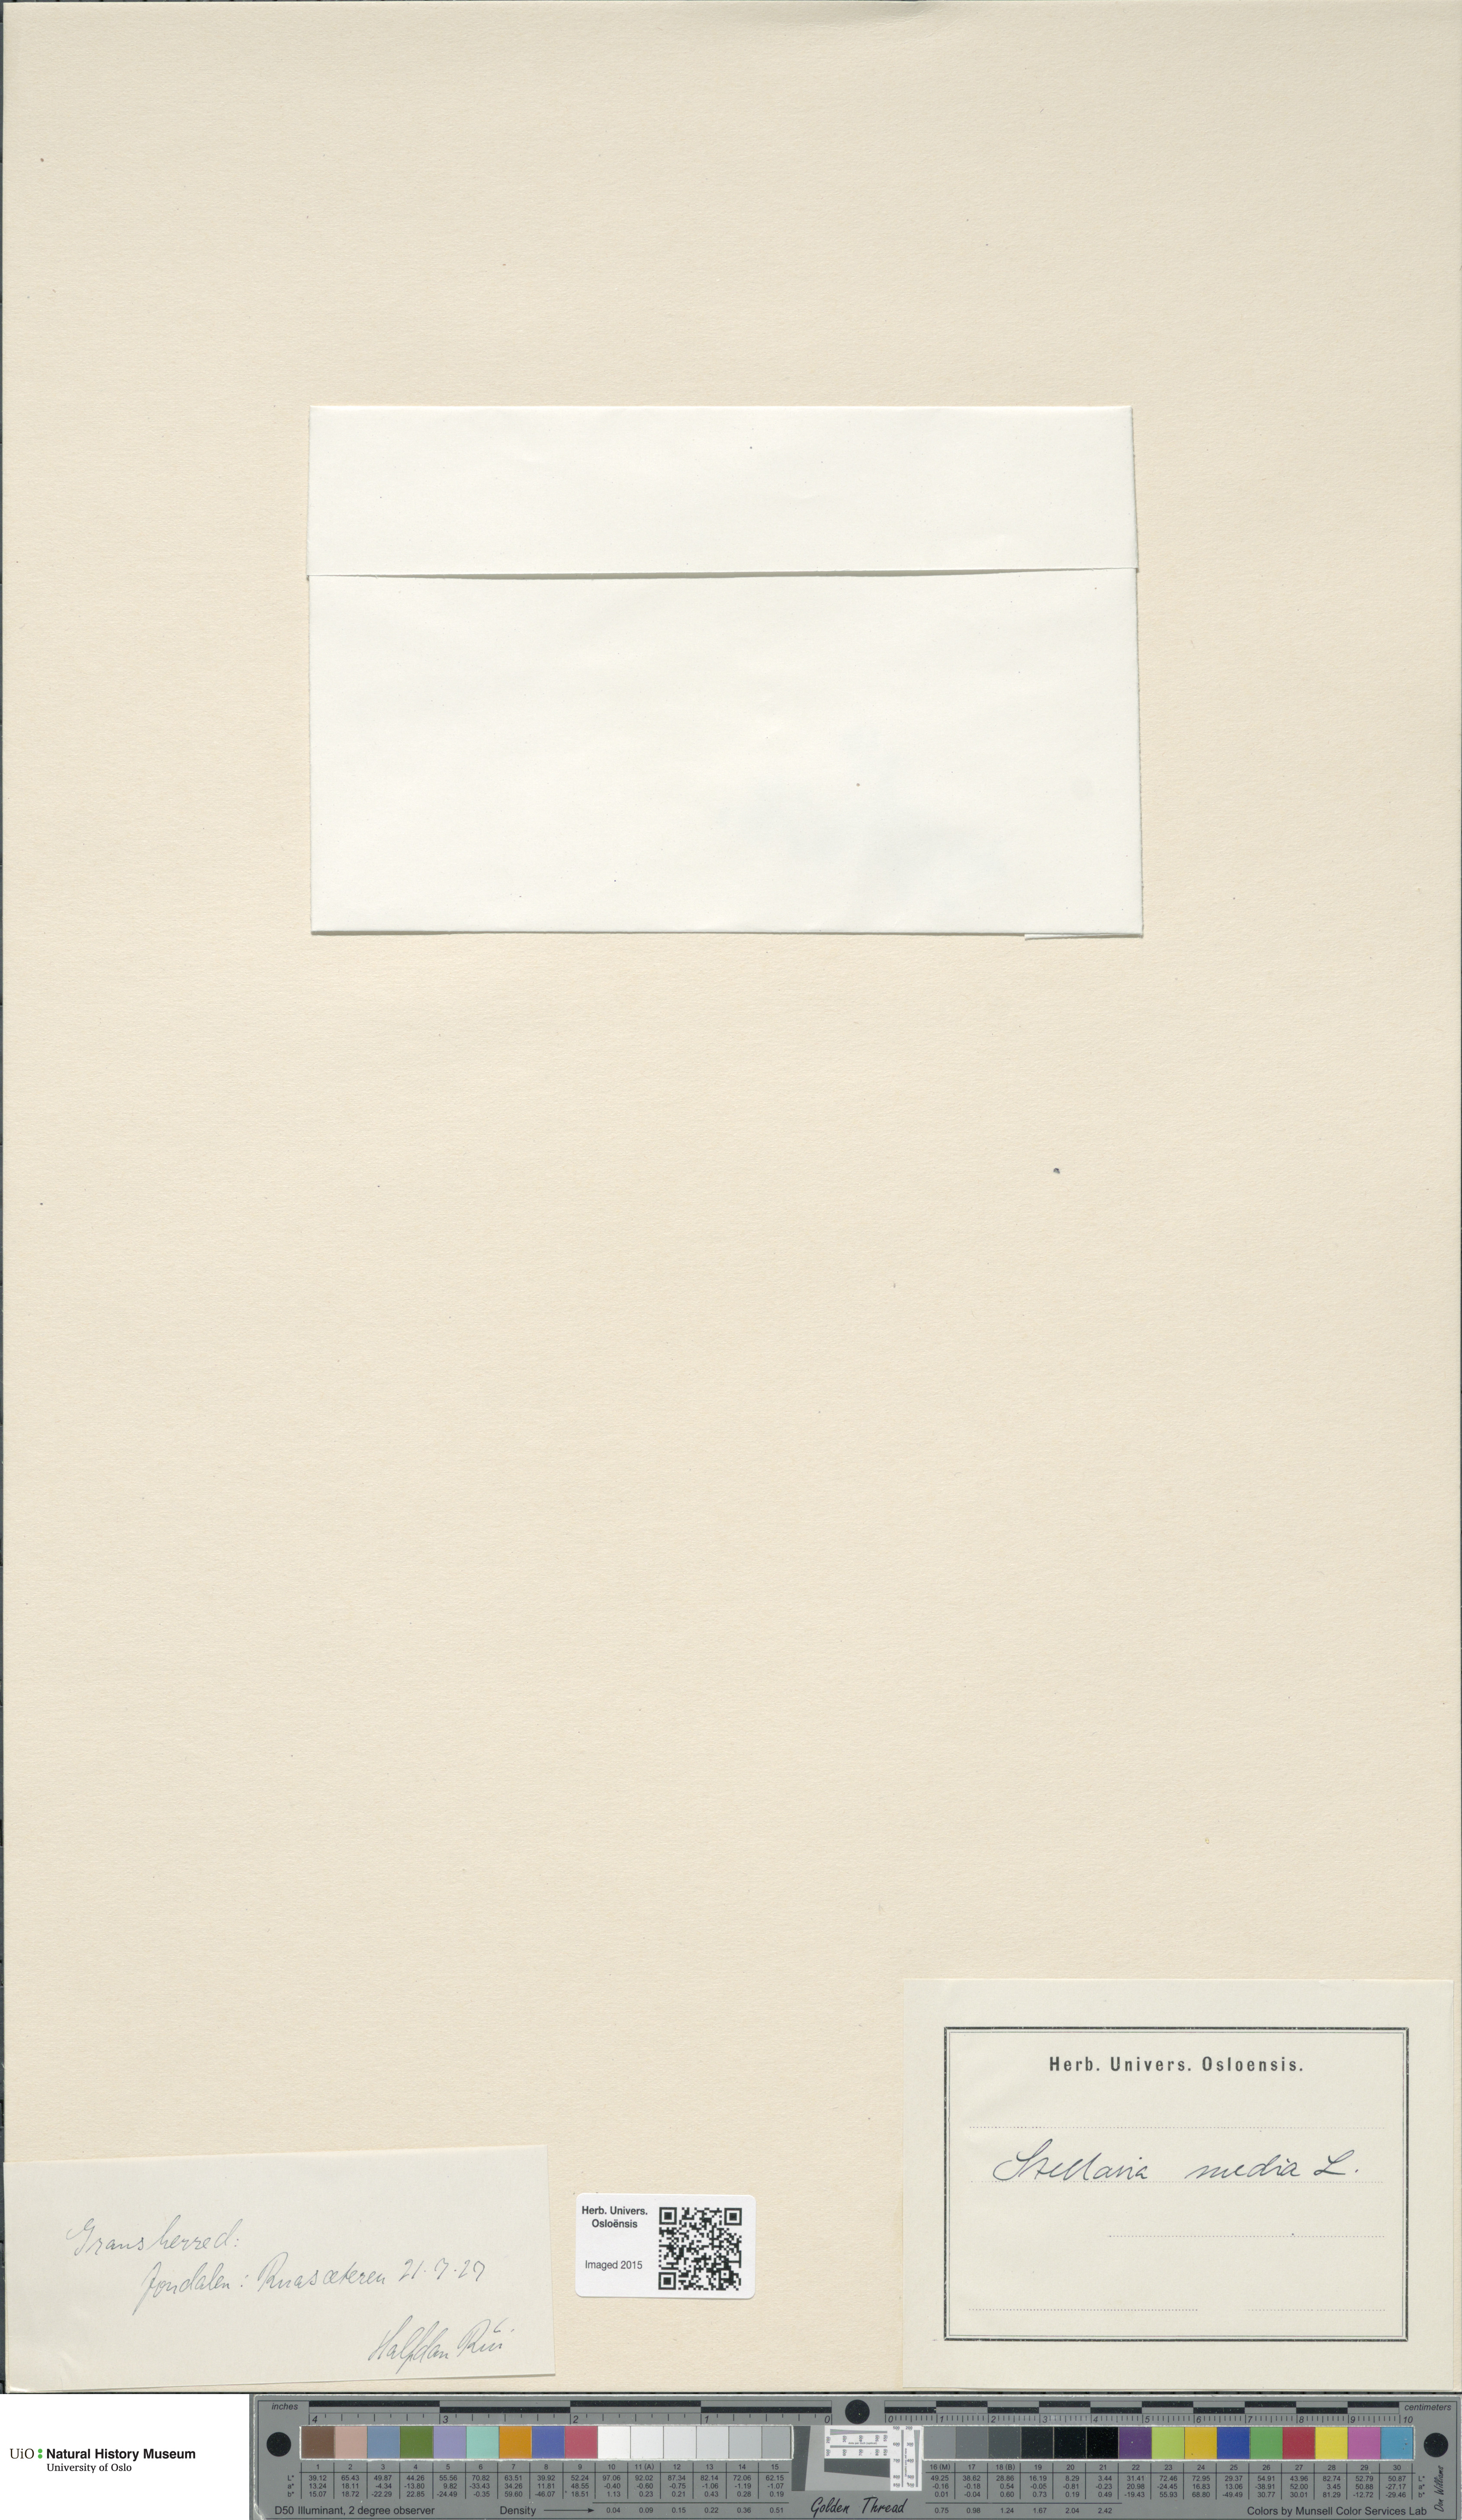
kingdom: Plantae
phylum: Tracheophyta
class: Magnoliopsida
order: Caryophyllales
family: Caryophyllaceae
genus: Stellaria
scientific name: Stellaria media
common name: Common chickweed
